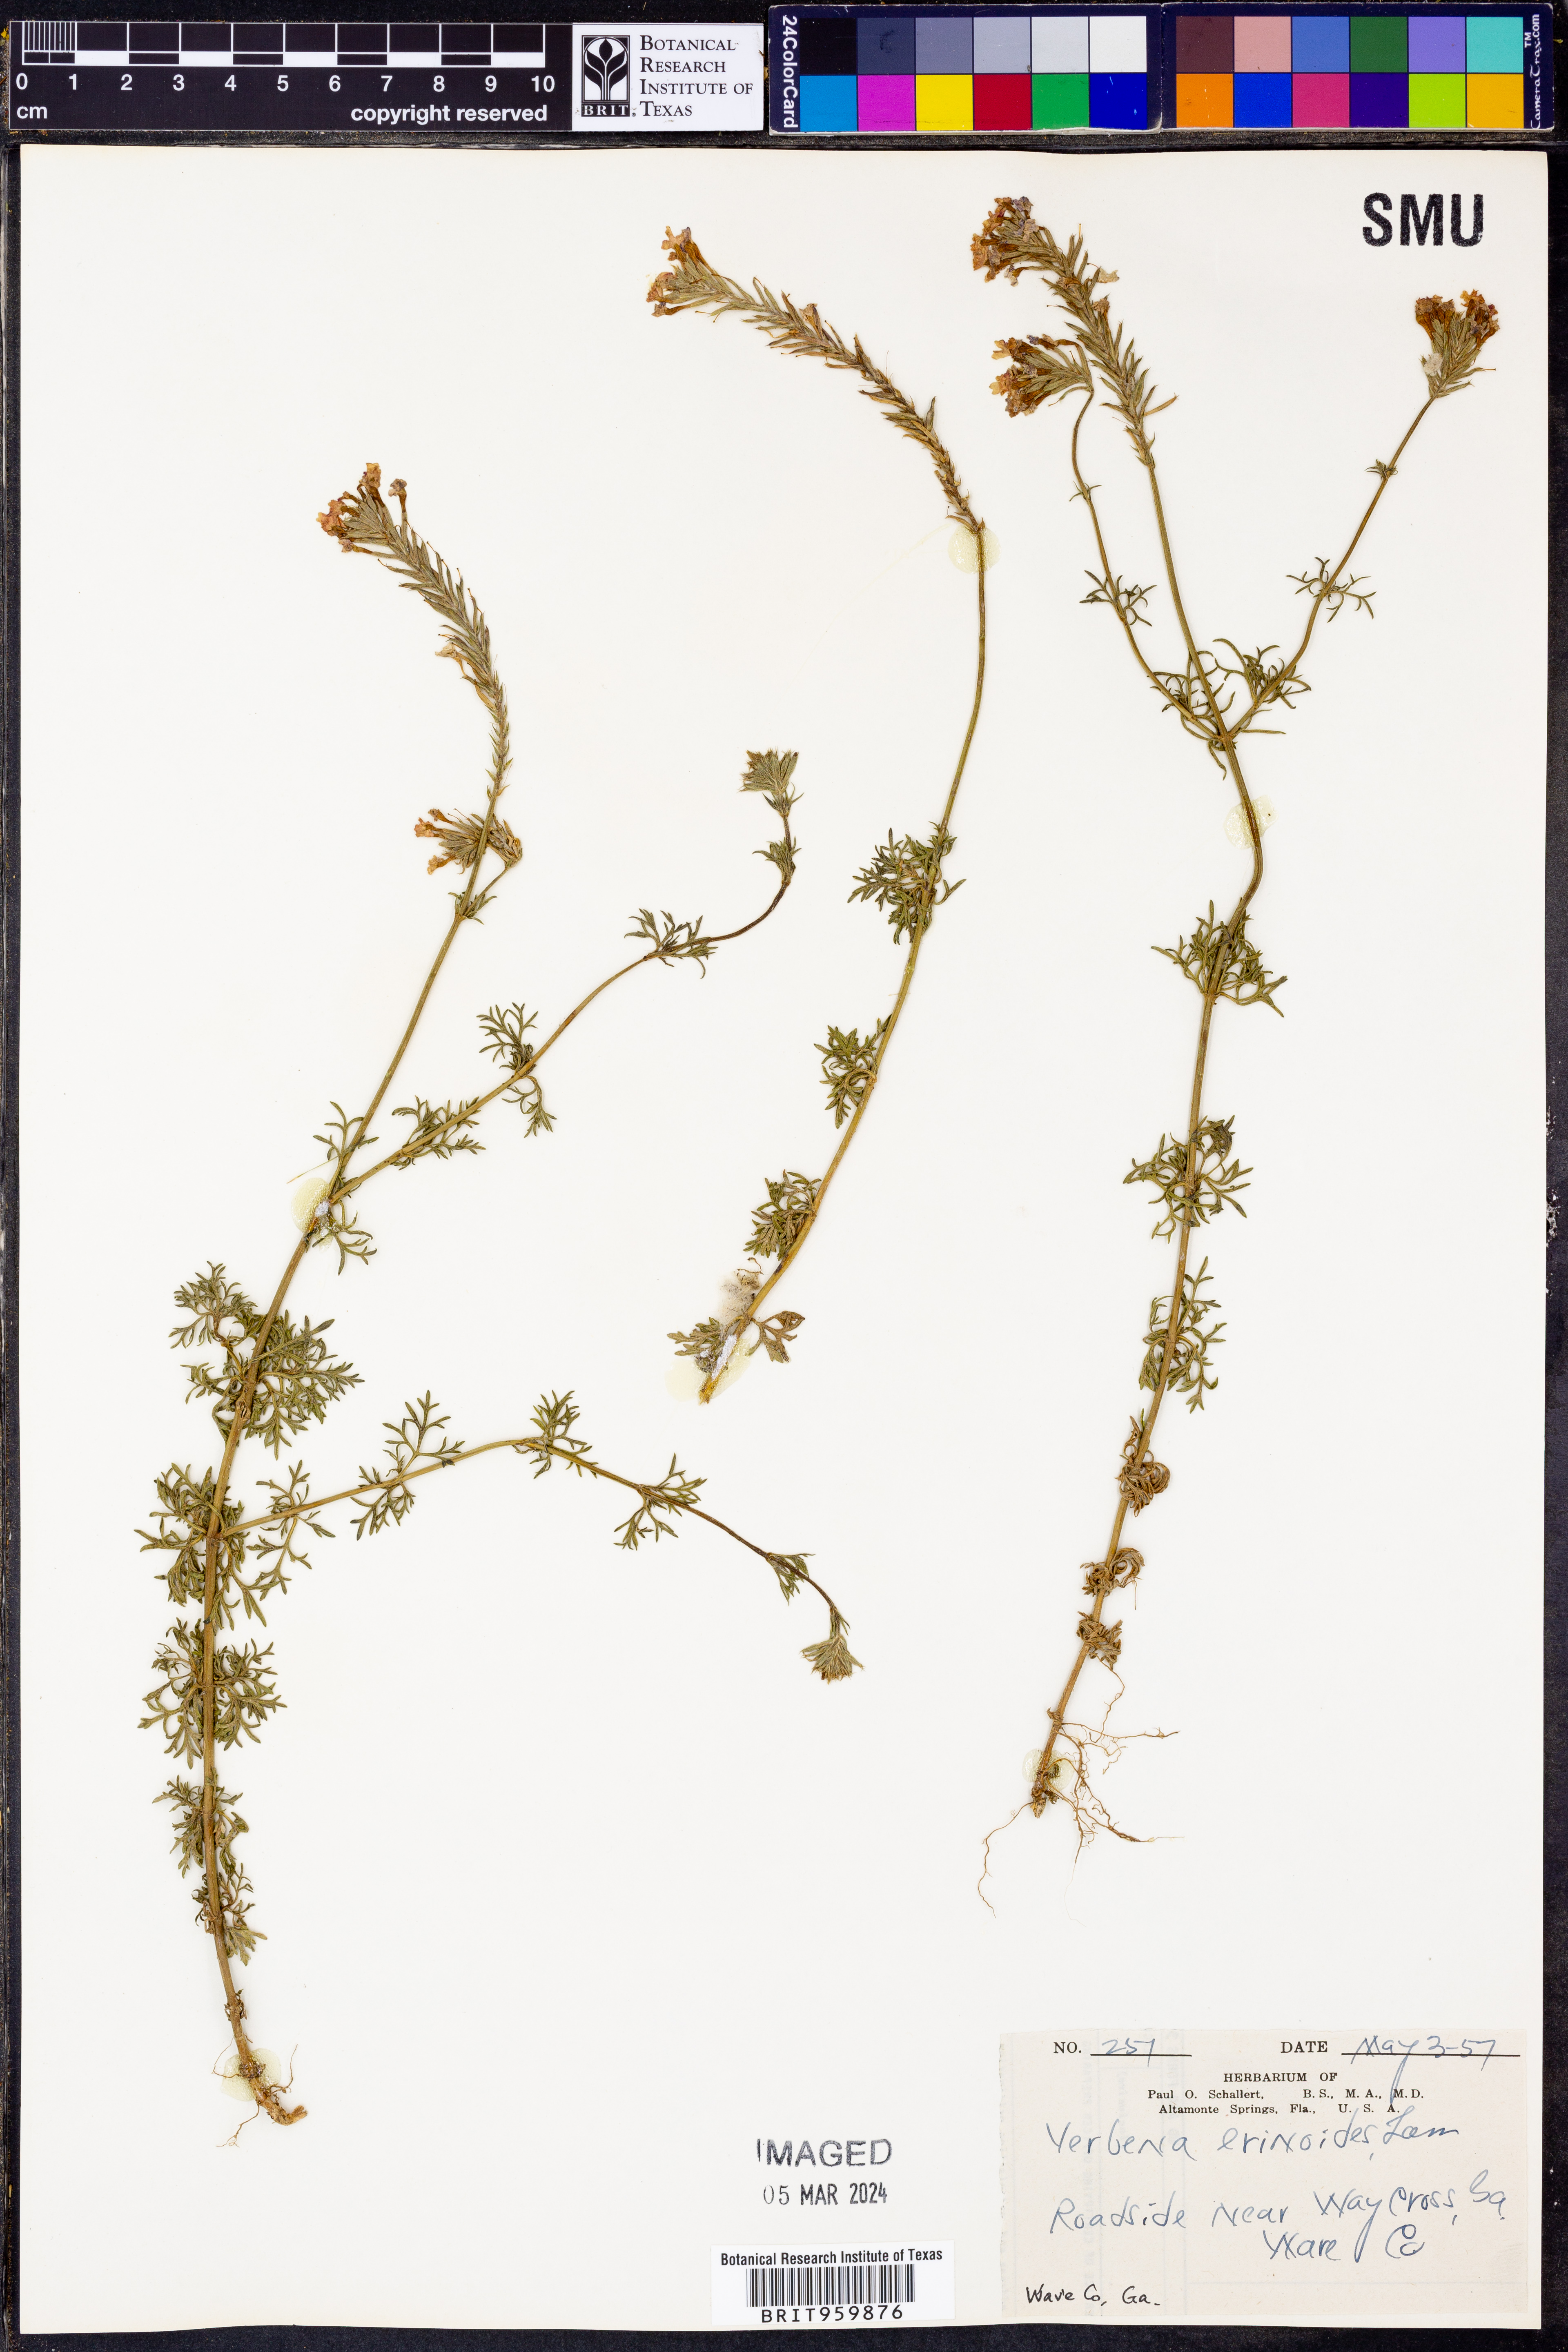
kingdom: Plantae
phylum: Tracheophyta
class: Magnoliopsida
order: Lamiales
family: Verbenaceae
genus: Verbena
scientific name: Verbena tenera
